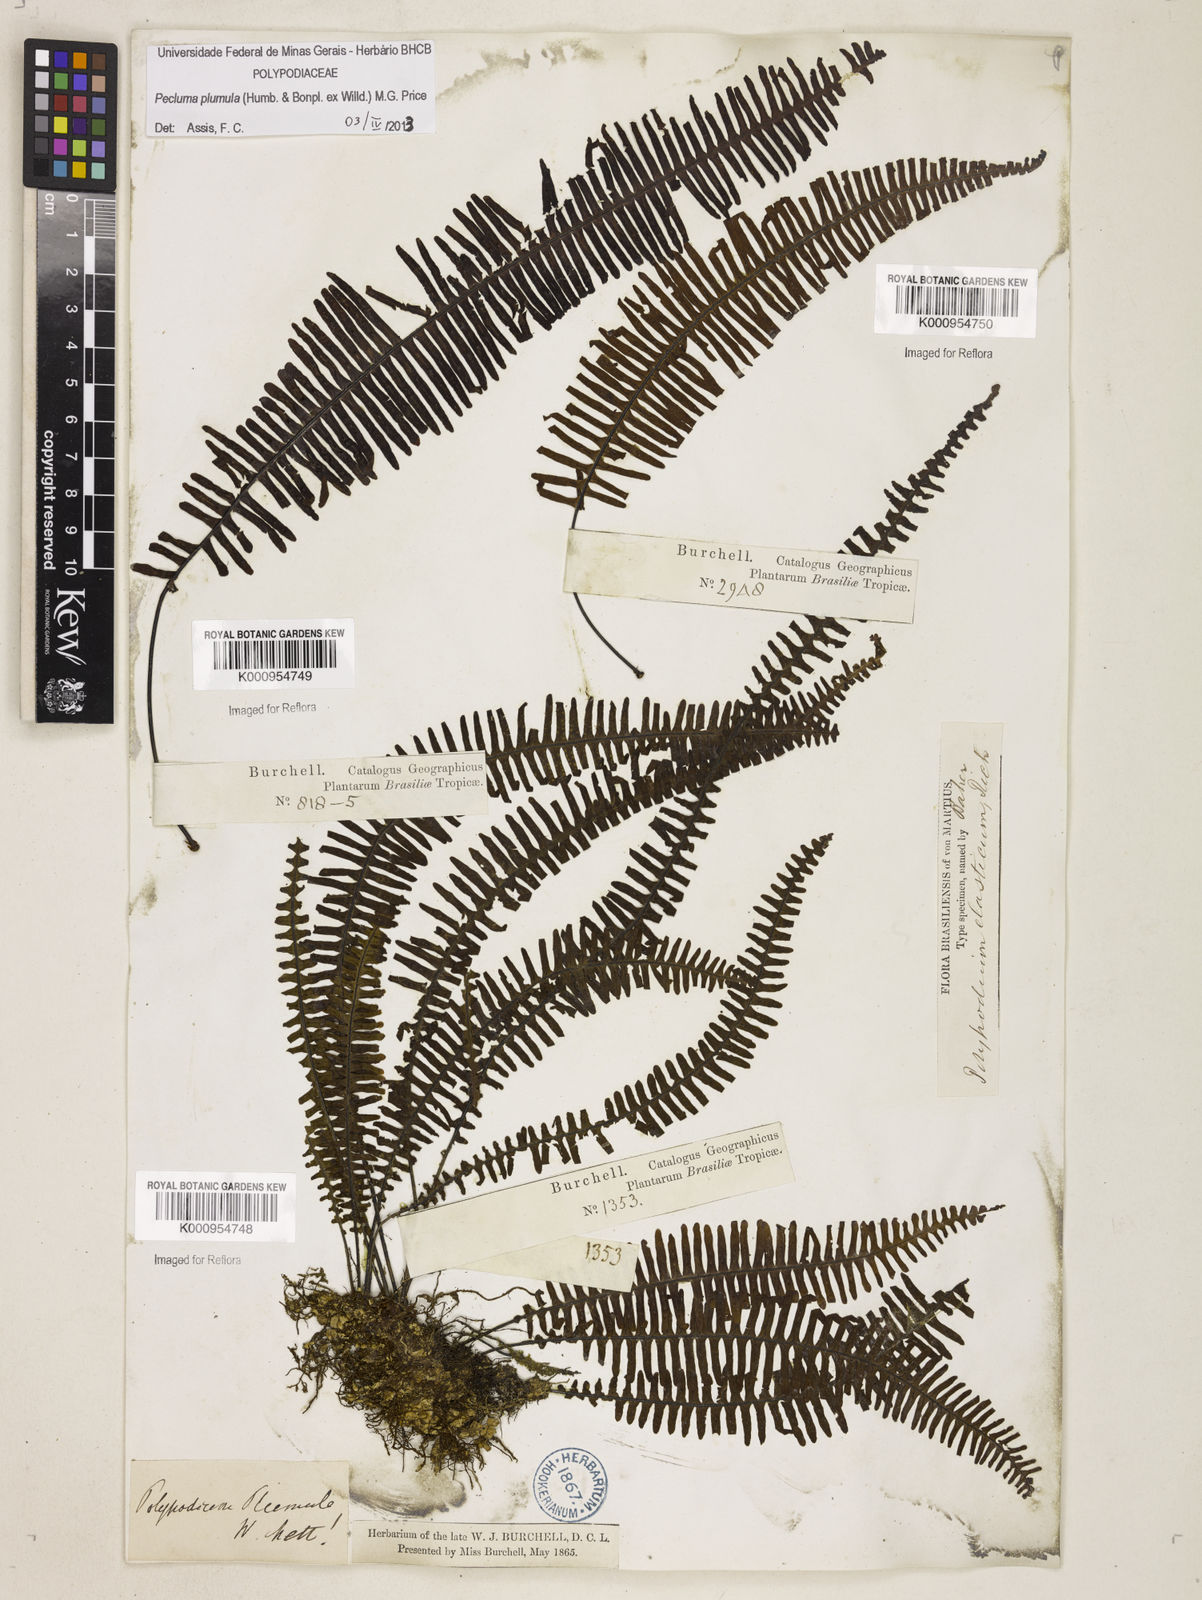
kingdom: Plantae
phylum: Tracheophyta
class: Polypodiopsida
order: Polypodiales
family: Polypodiaceae
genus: Pecluma
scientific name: Pecluma plumula
